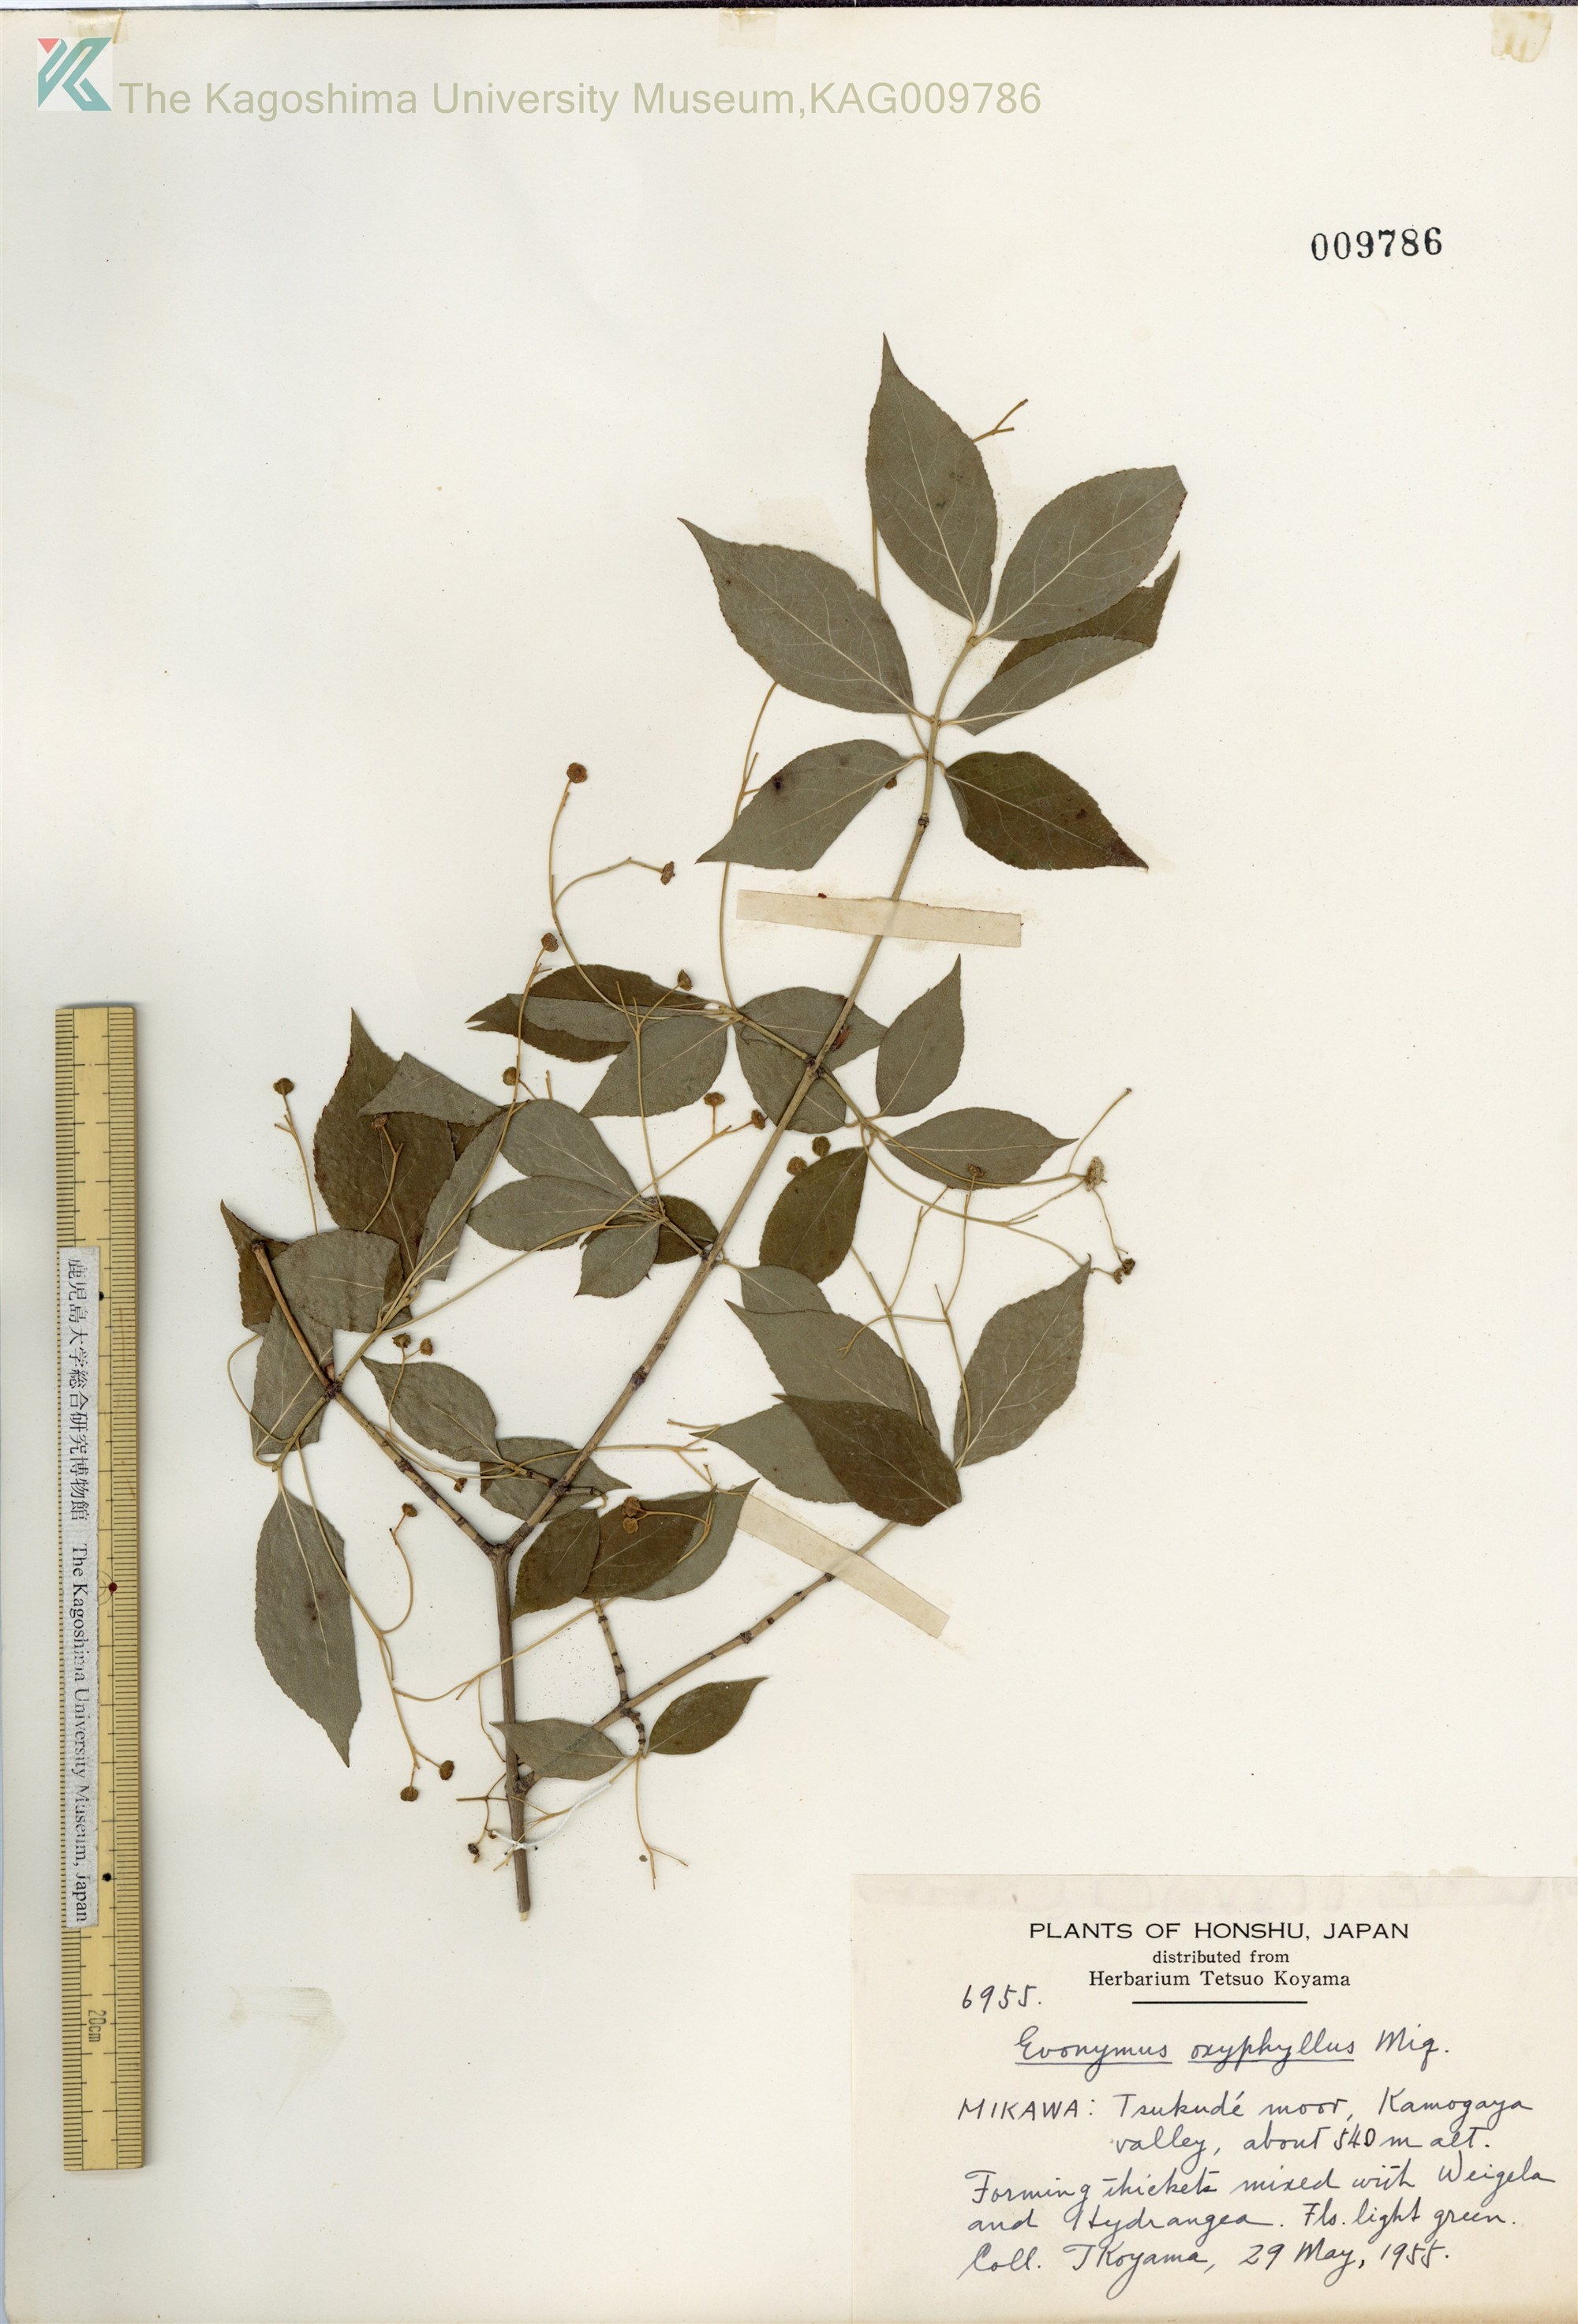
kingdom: Plantae
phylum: Tracheophyta
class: Magnoliopsida
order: Celastrales
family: Celastraceae
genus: Euonymus
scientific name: Euonymus oxyphyllus
